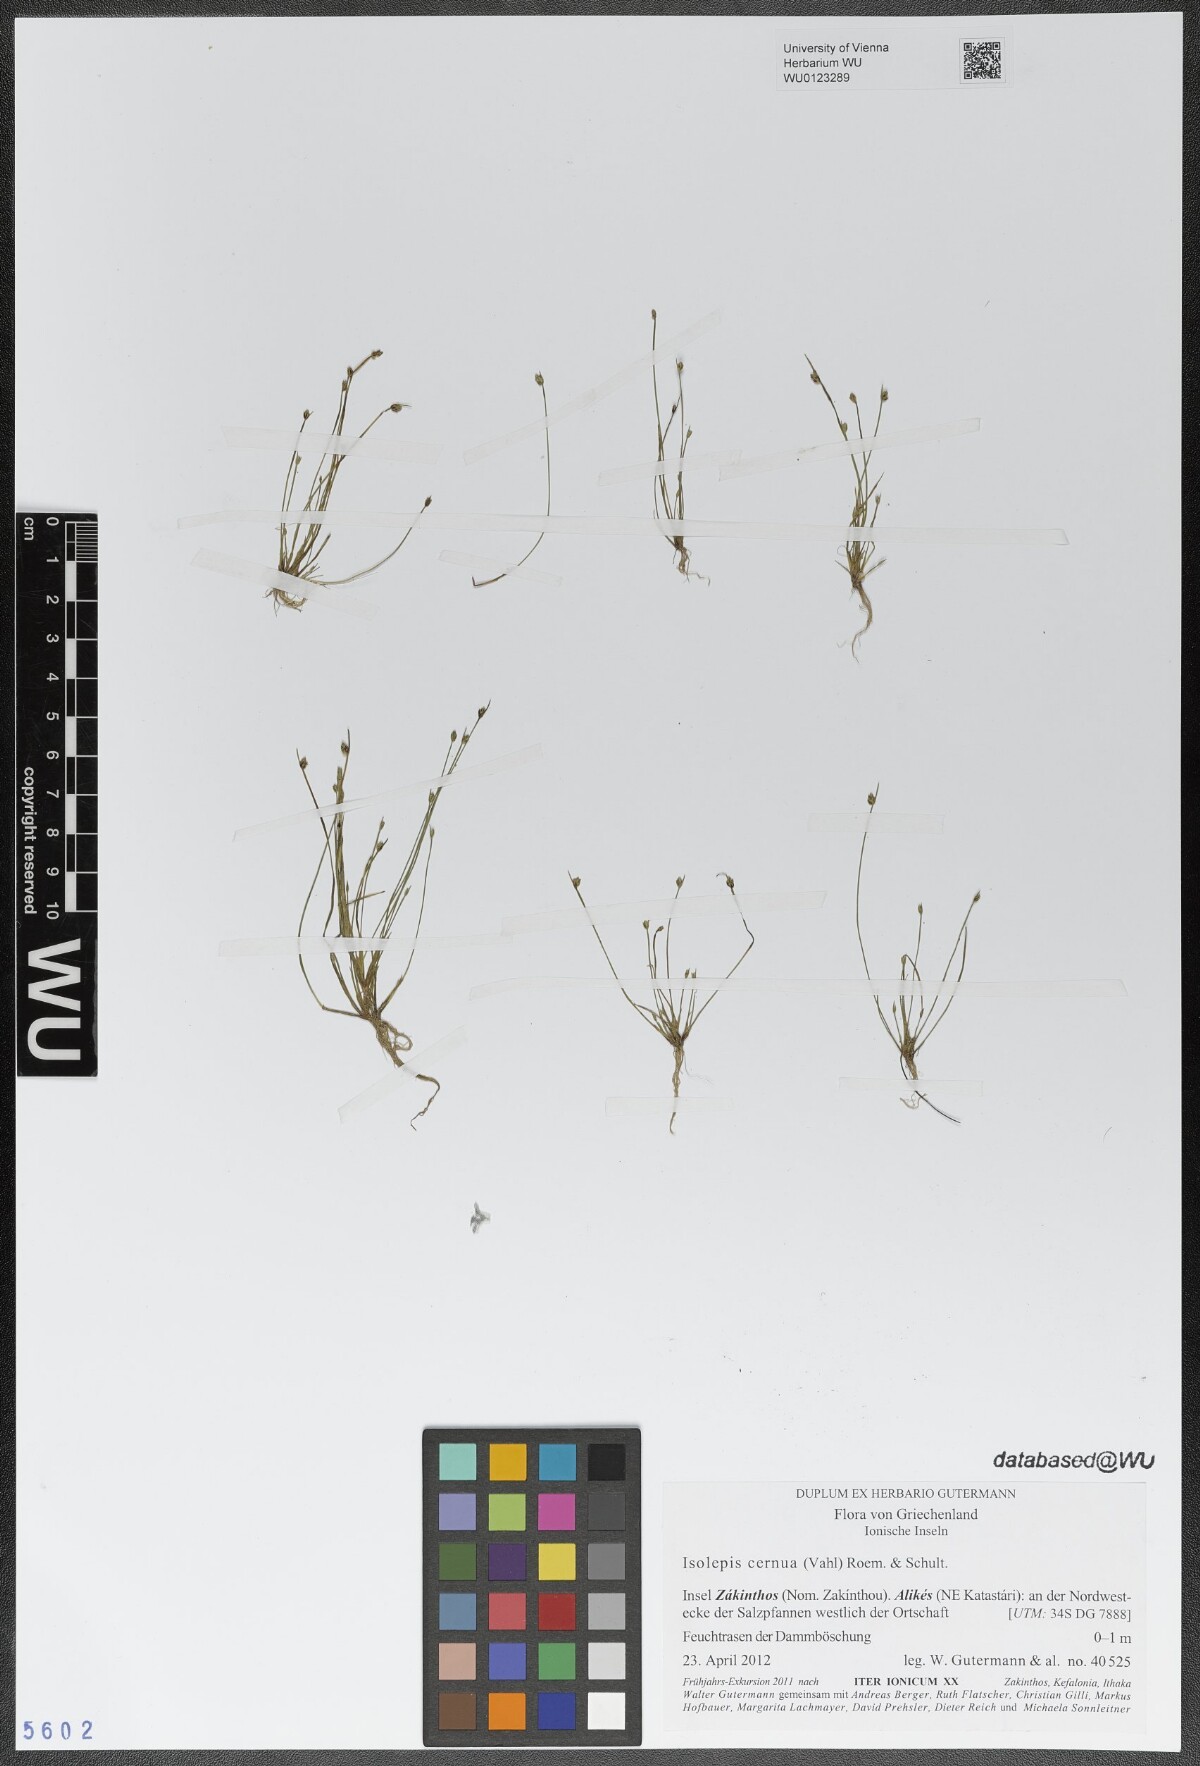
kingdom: Plantae
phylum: Tracheophyta
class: Liliopsida
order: Poales
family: Cyperaceae
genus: Isolepis
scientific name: Isolepis cernua
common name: Slender club-rush
